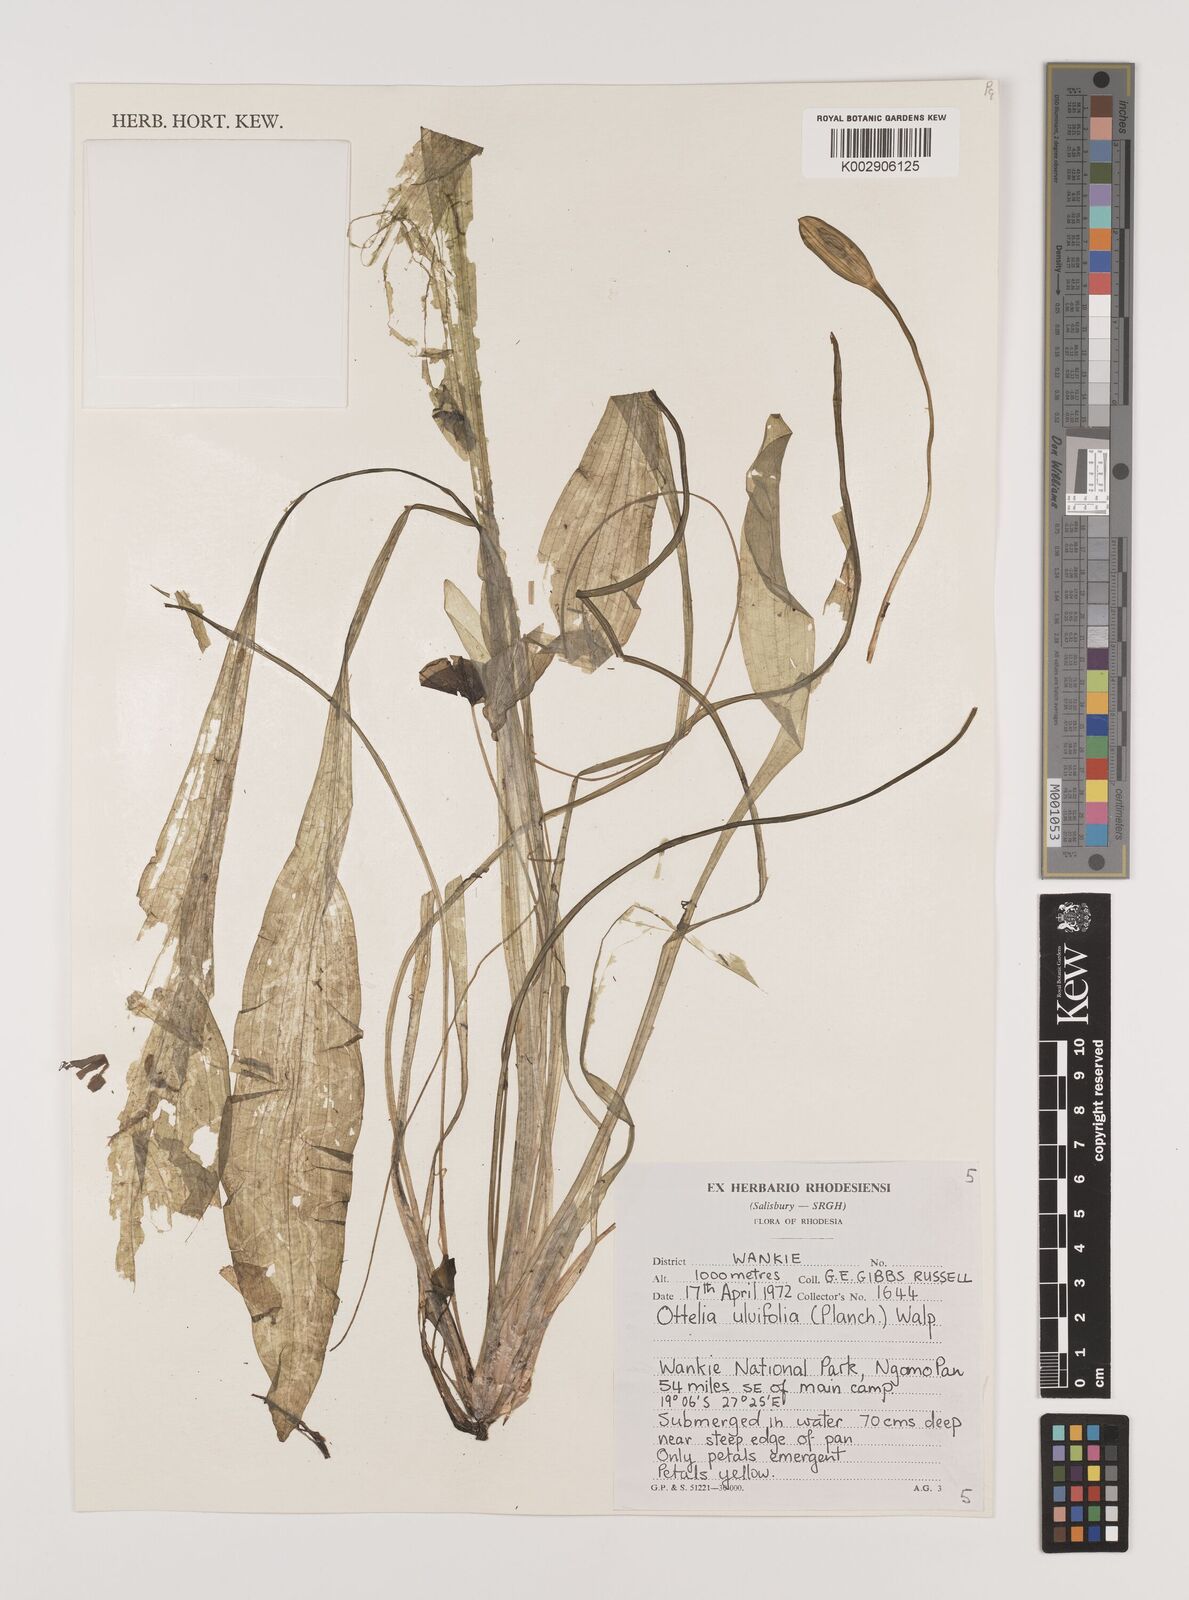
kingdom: Plantae
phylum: Tracheophyta
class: Liliopsida
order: Alismatales
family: Hydrocharitaceae
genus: Ottelia
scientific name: Ottelia ulvifolia
